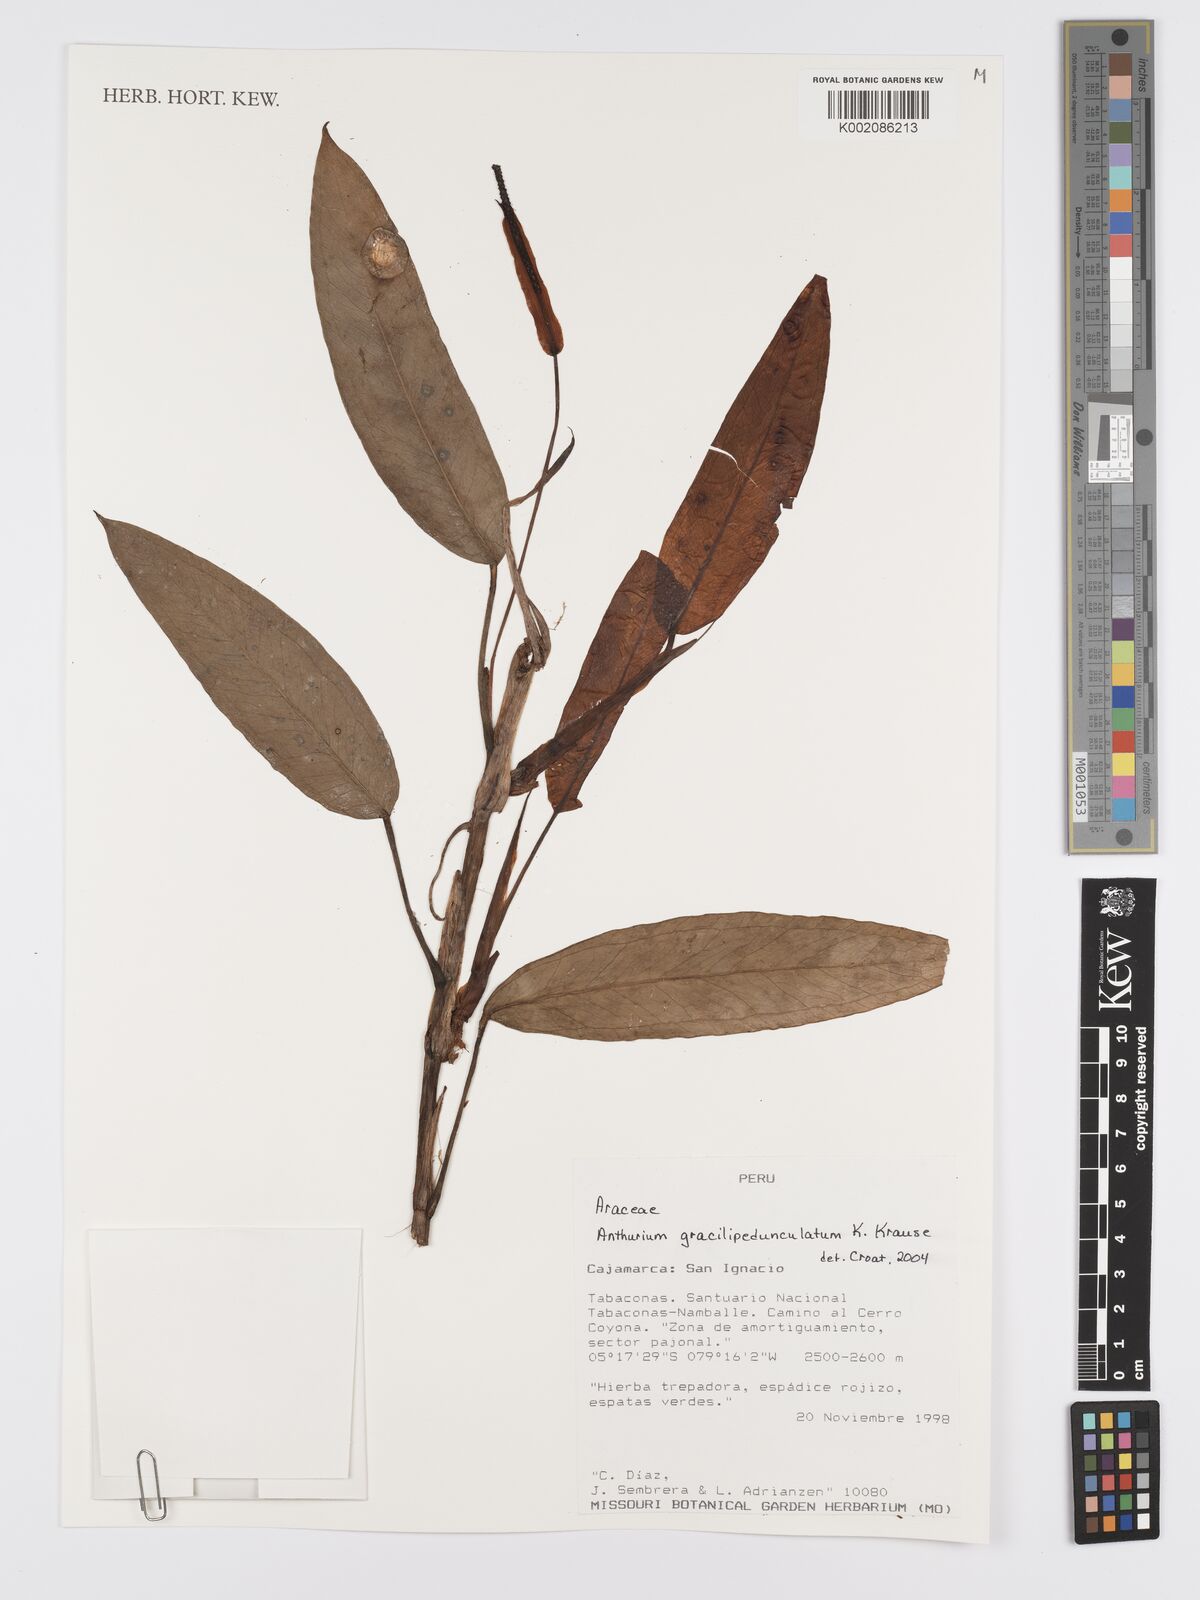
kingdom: Plantae
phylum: Tracheophyta
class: Liliopsida
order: Alismatales
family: Araceae
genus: Anthurium
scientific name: Anthurium gracilipedunculatum
